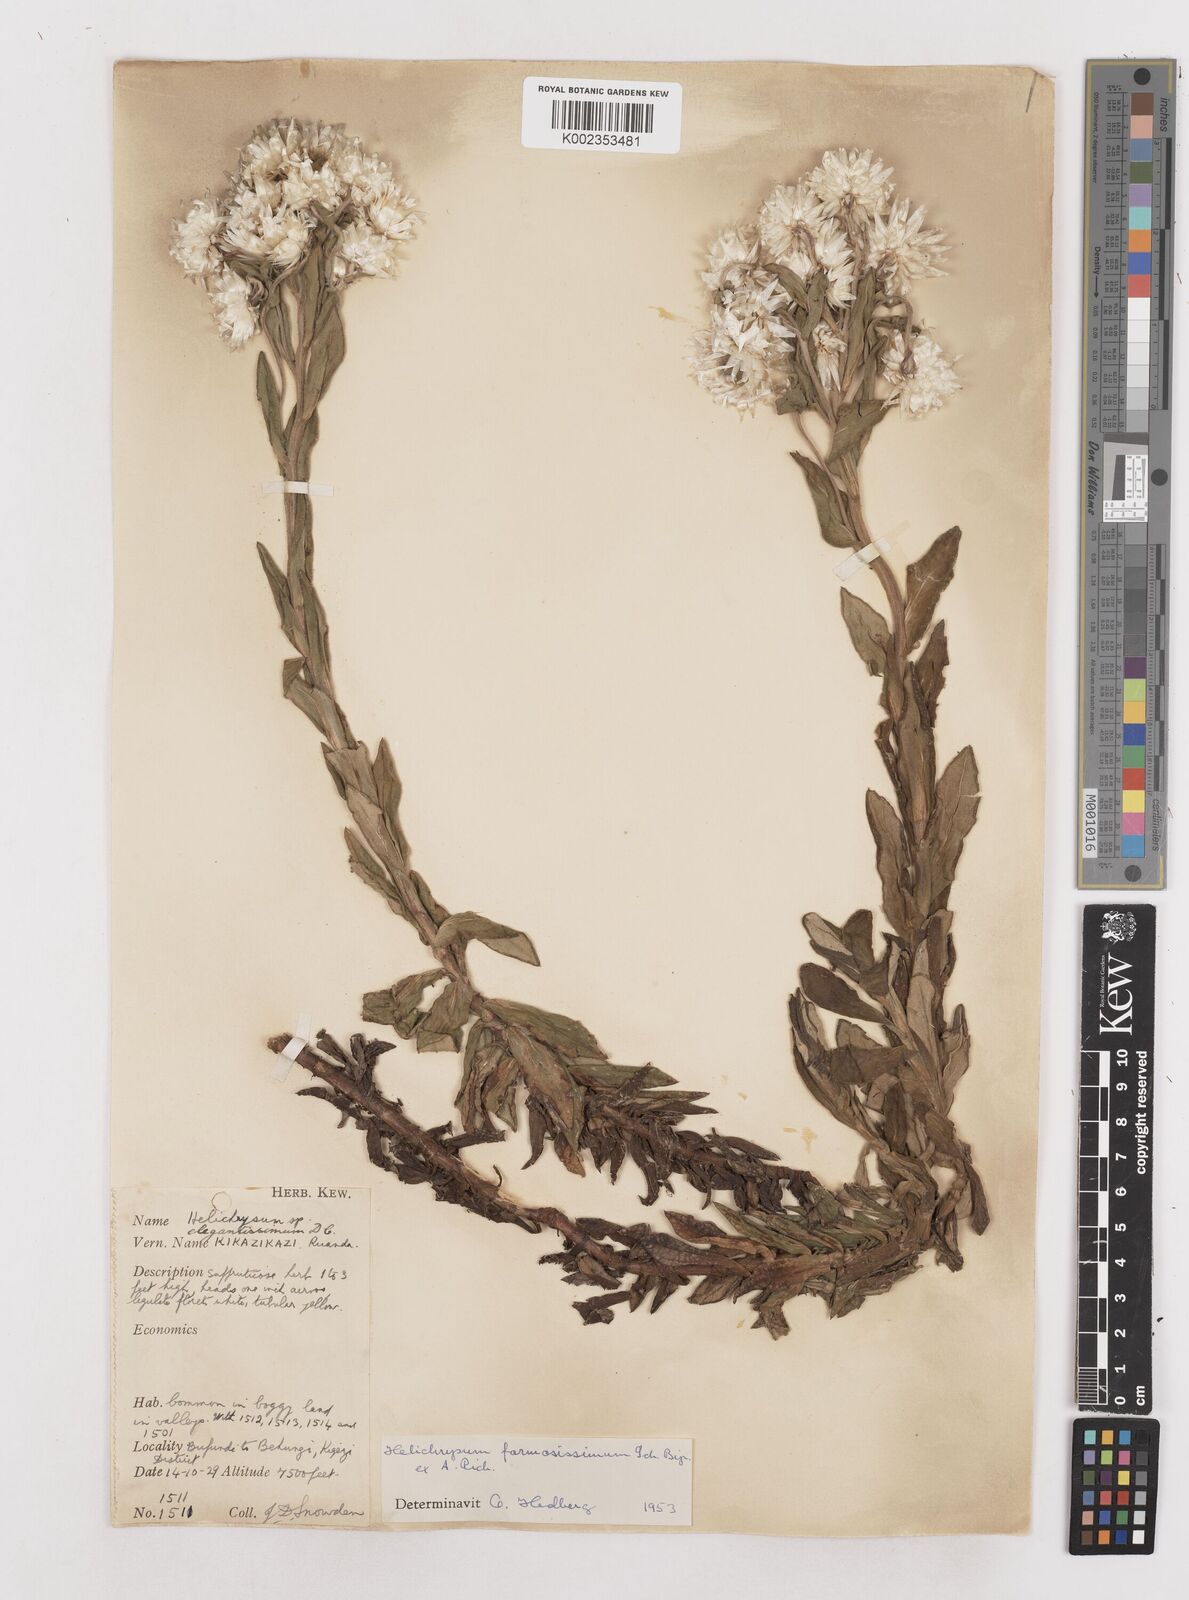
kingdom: Plantae
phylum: Tracheophyta
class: Magnoliopsida
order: Asterales
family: Asteraceae
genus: Helichrysum
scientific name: Helichrysum formosissimum
